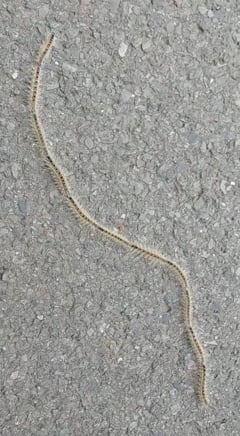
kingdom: Animalia
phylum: Arthropoda
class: Insecta
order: Lepidoptera
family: Notodontidae
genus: Thaumetopoea
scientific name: Thaumetopoea pinivora
